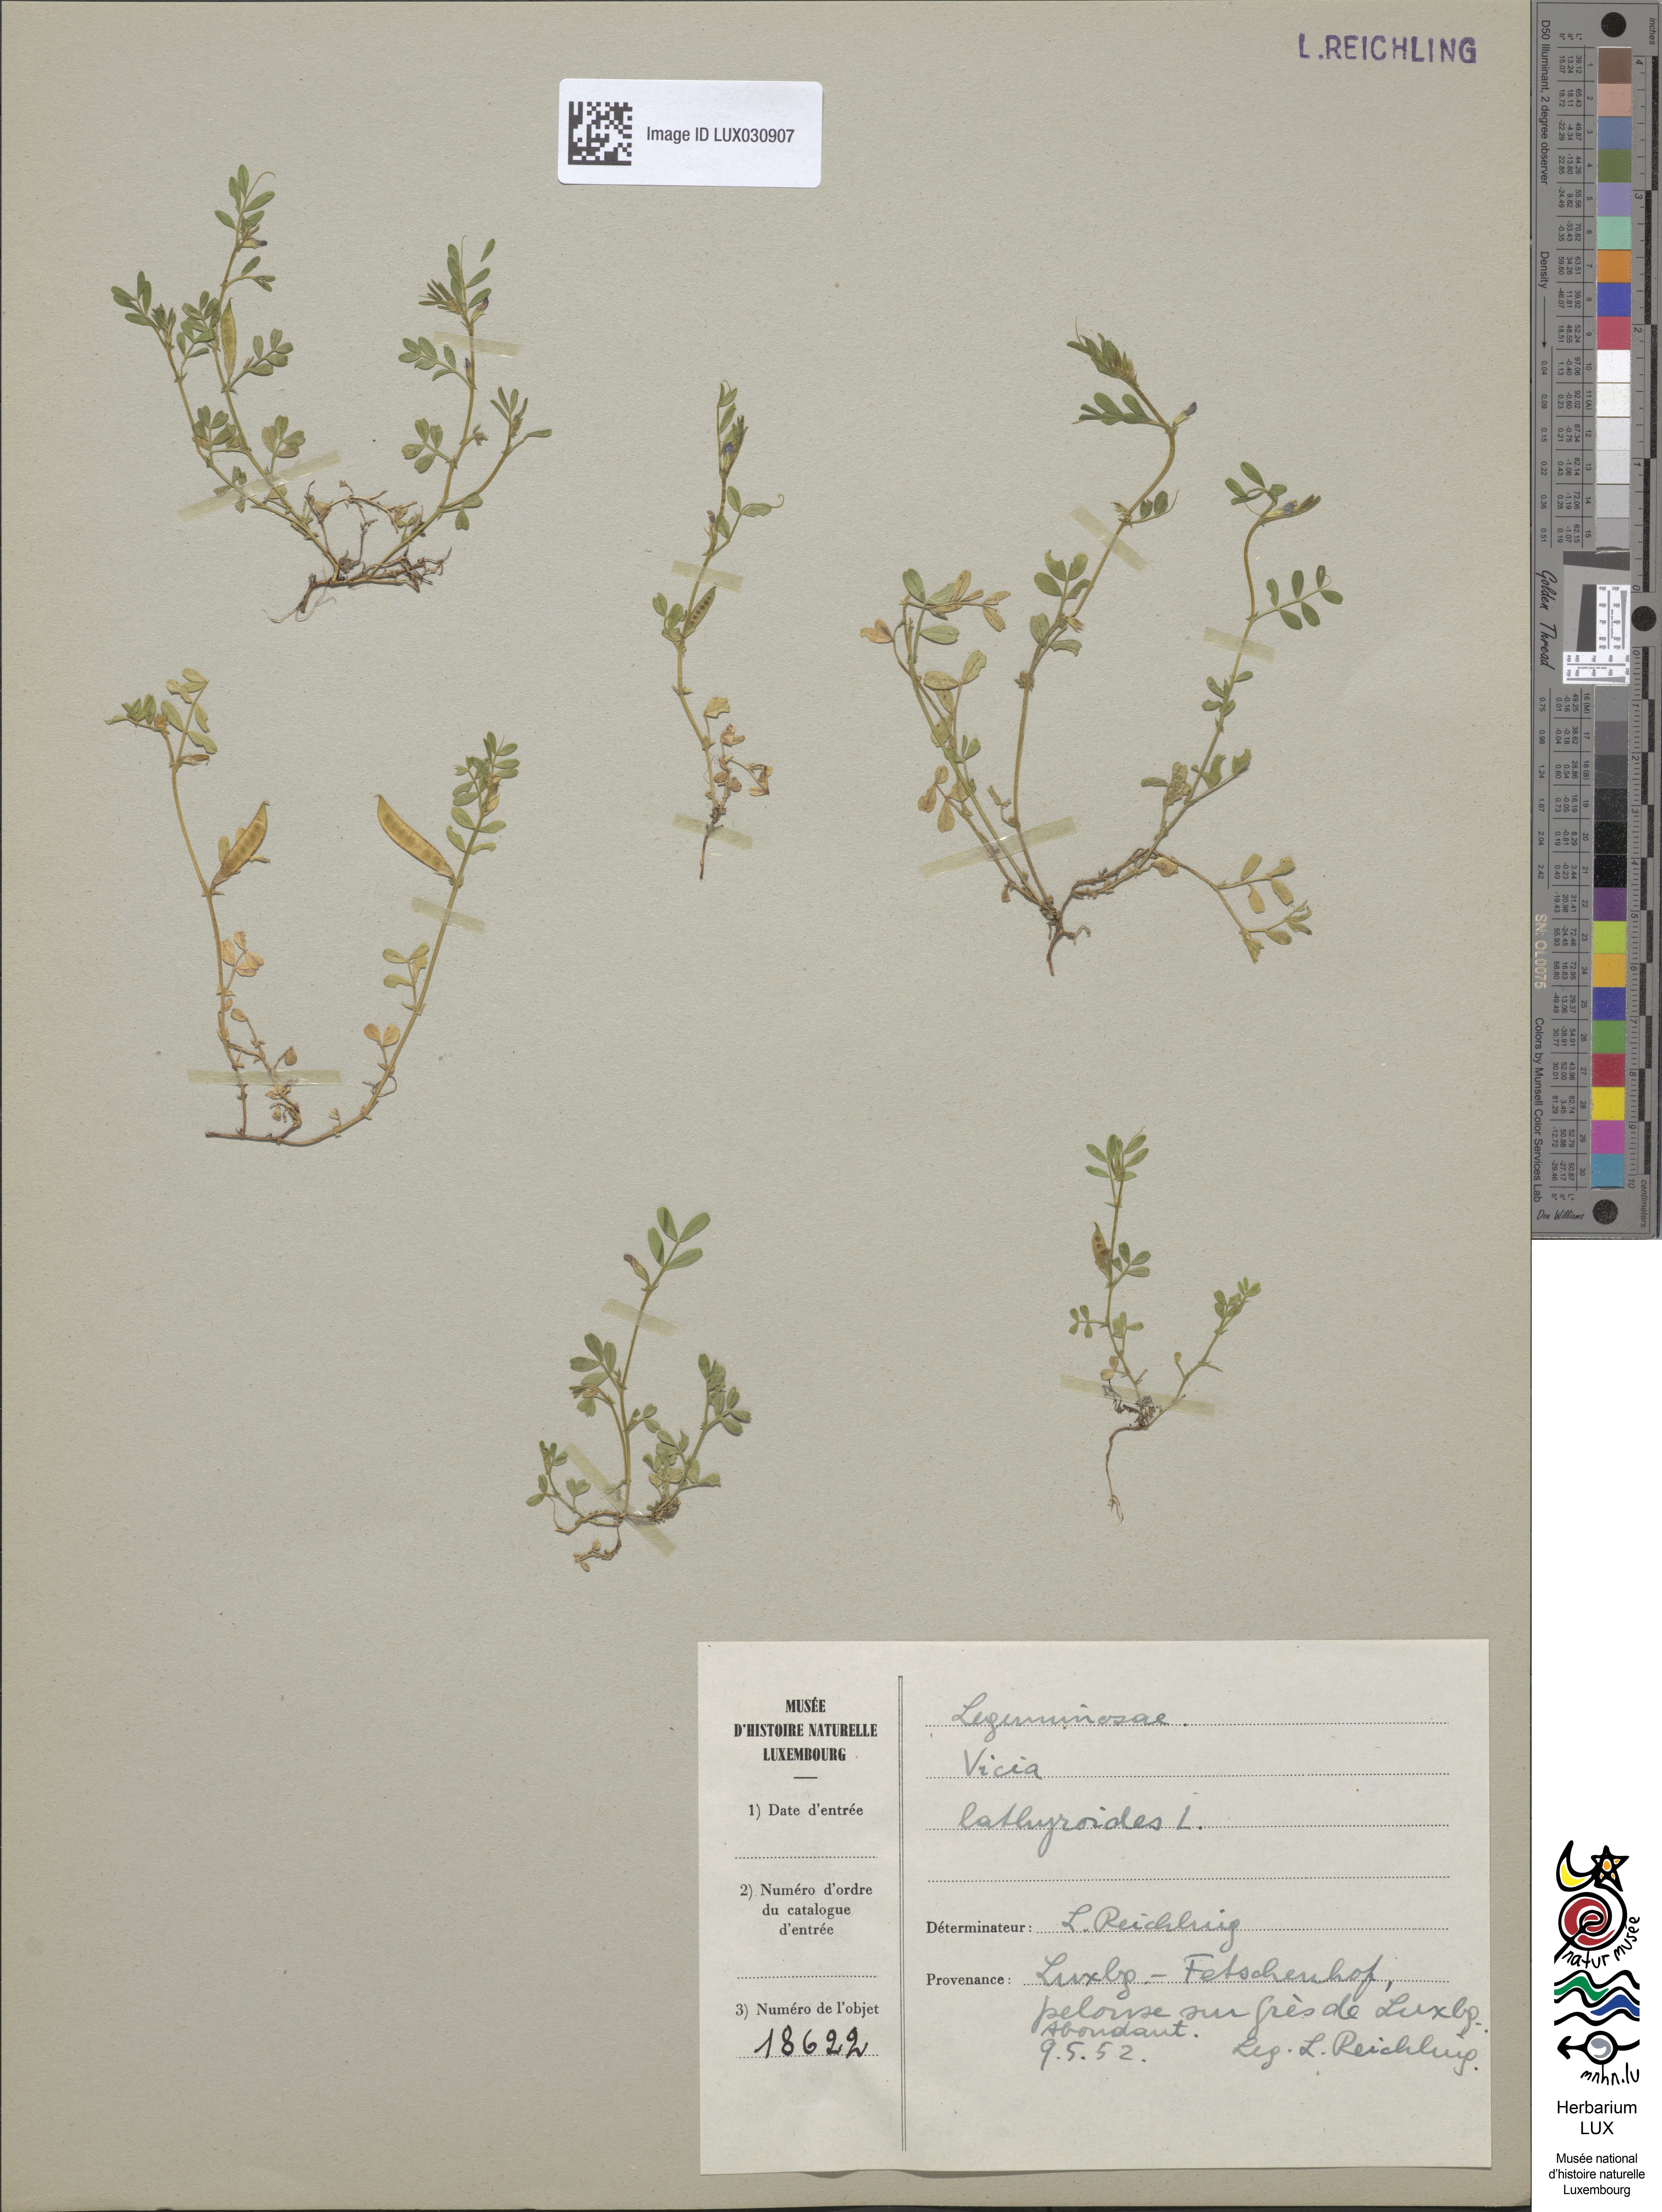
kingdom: Plantae
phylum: Tracheophyta
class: Magnoliopsida
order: Fabales
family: Fabaceae
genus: Vicia
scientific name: Vicia lathyroides
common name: Spring vetch
